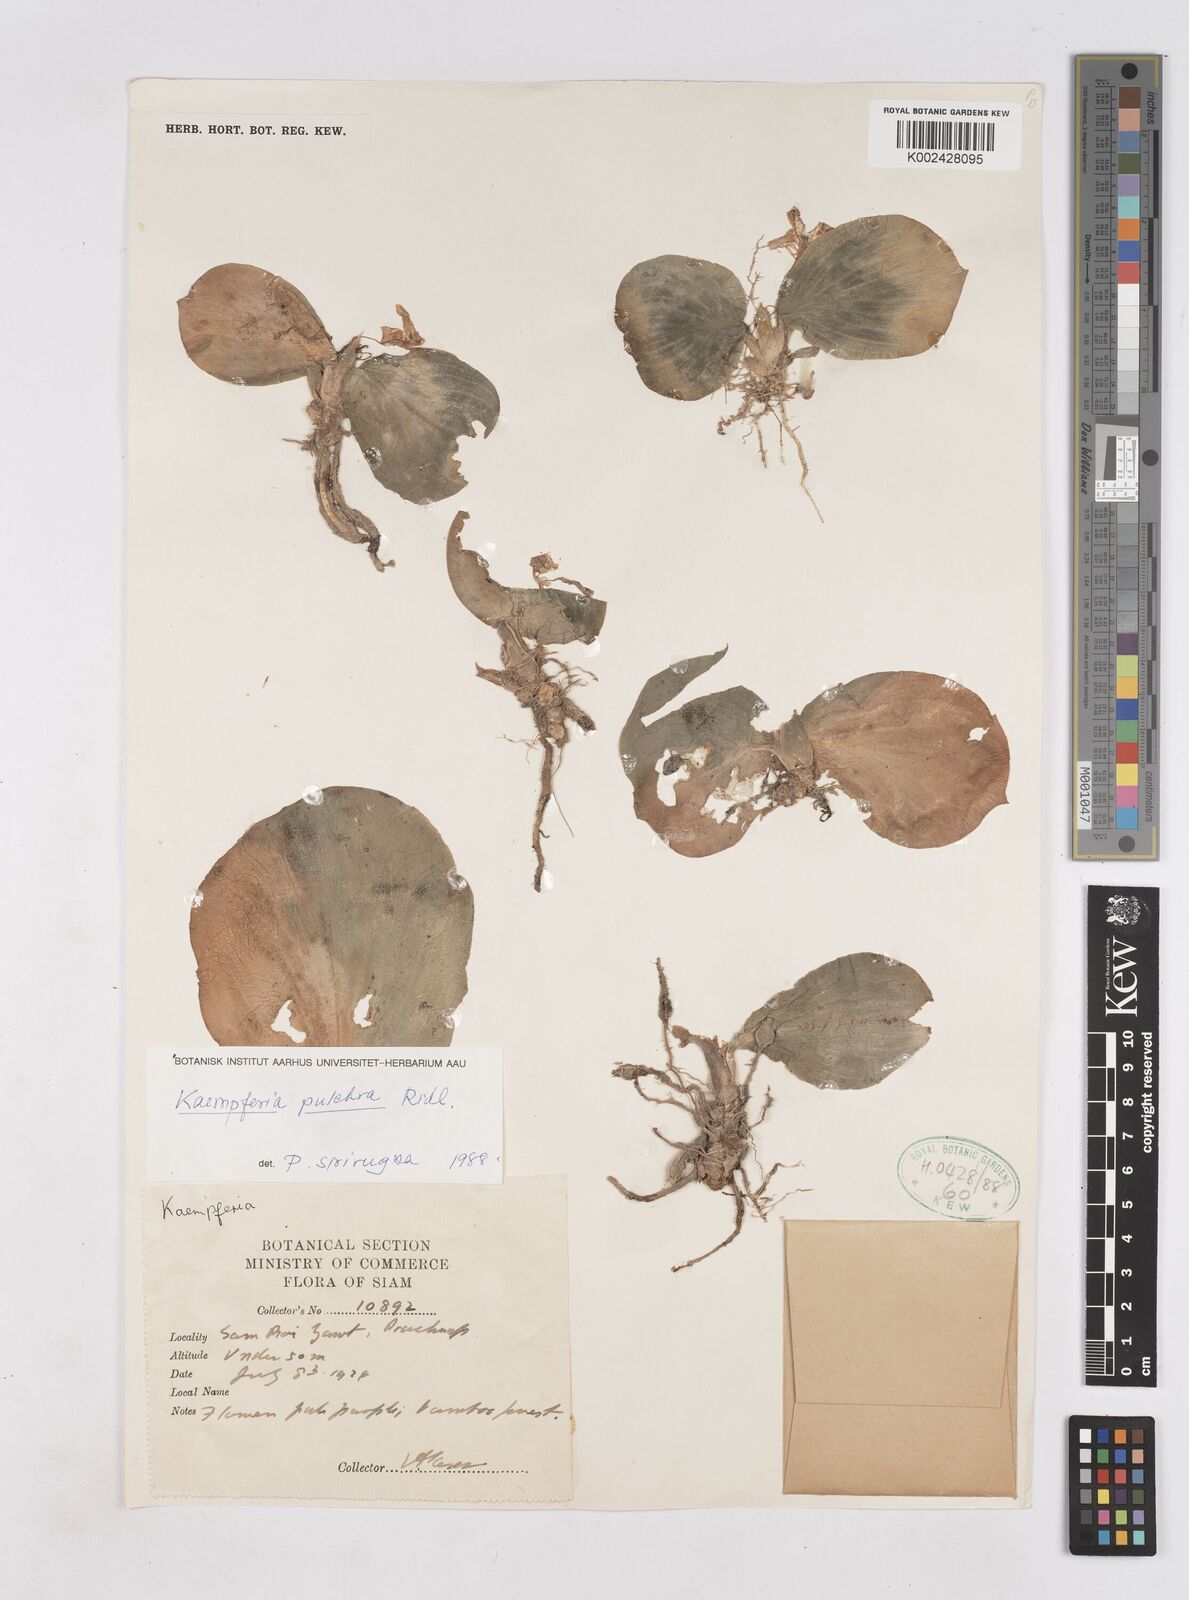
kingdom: Plantae
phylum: Tracheophyta
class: Liliopsida
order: Zingiberales
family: Zingiberaceae
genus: Kaempferia
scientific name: Kaempferia elegans
